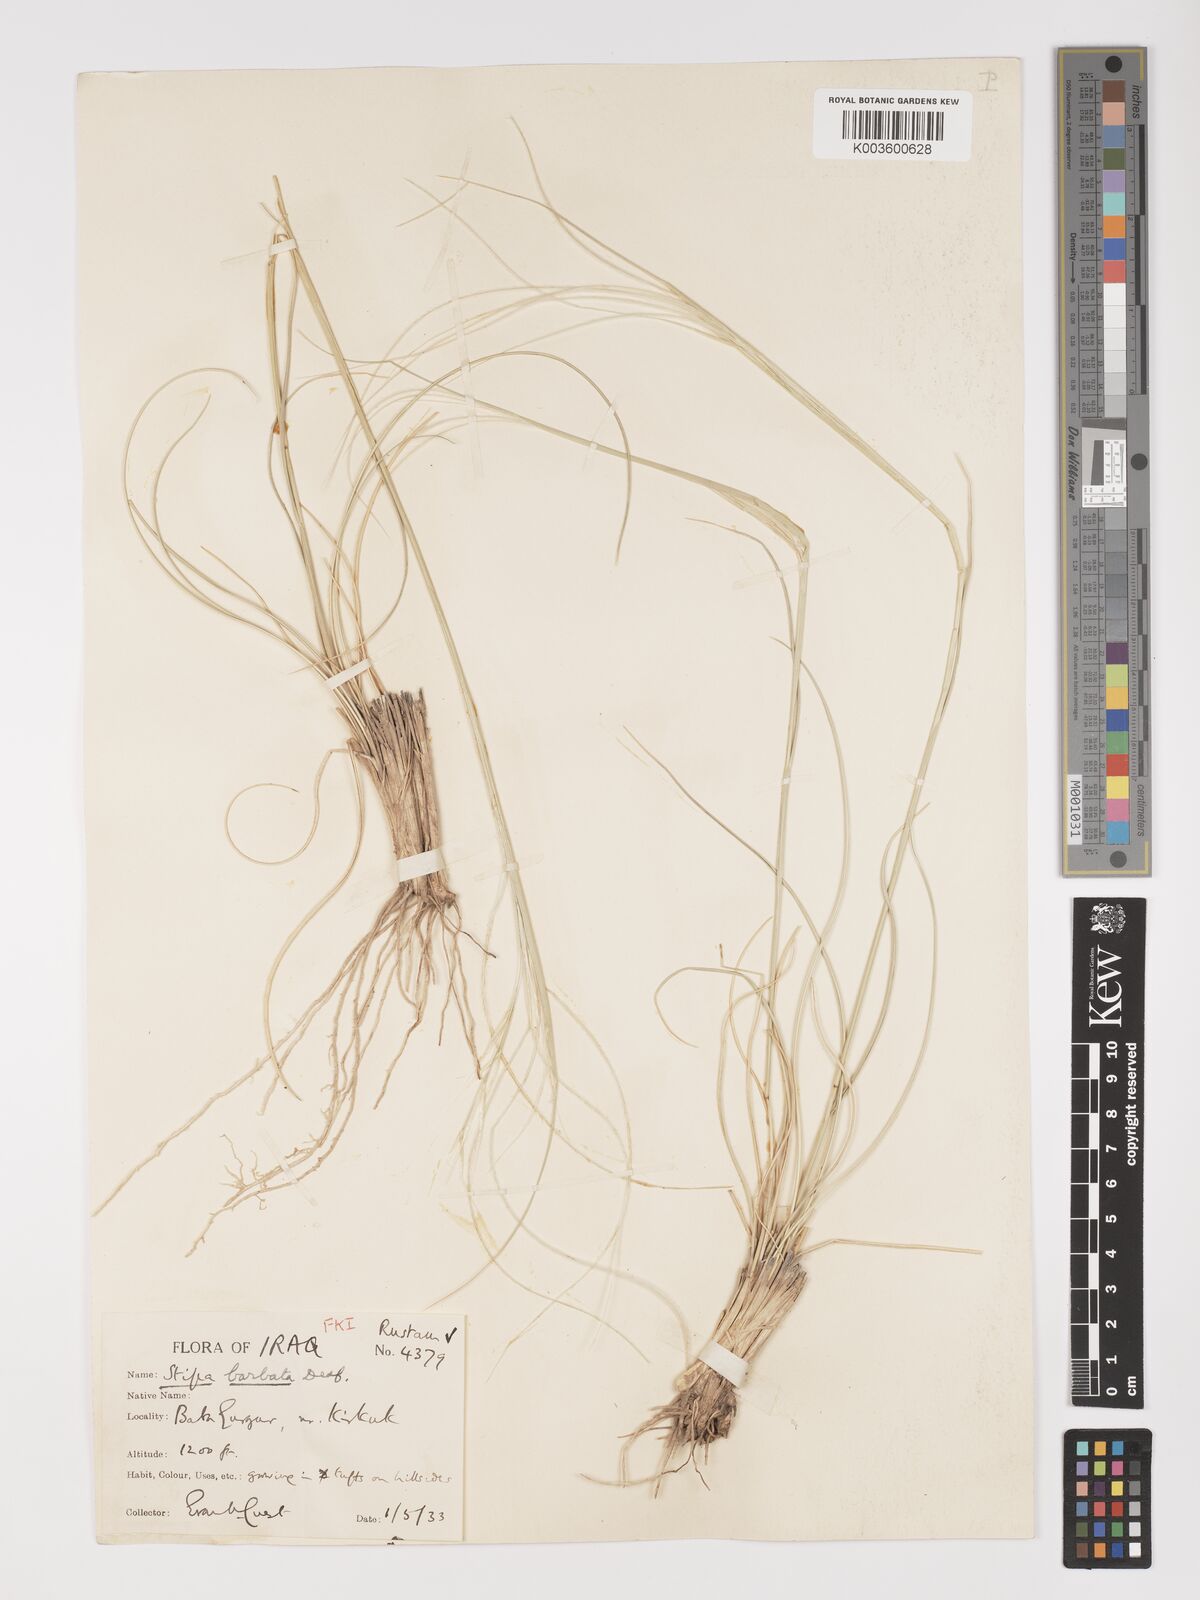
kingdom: Plantae
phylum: Tracheophyta
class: Liliopsida
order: Poales
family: Poaceae
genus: Stipa
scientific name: Stipa hohenackeriana
